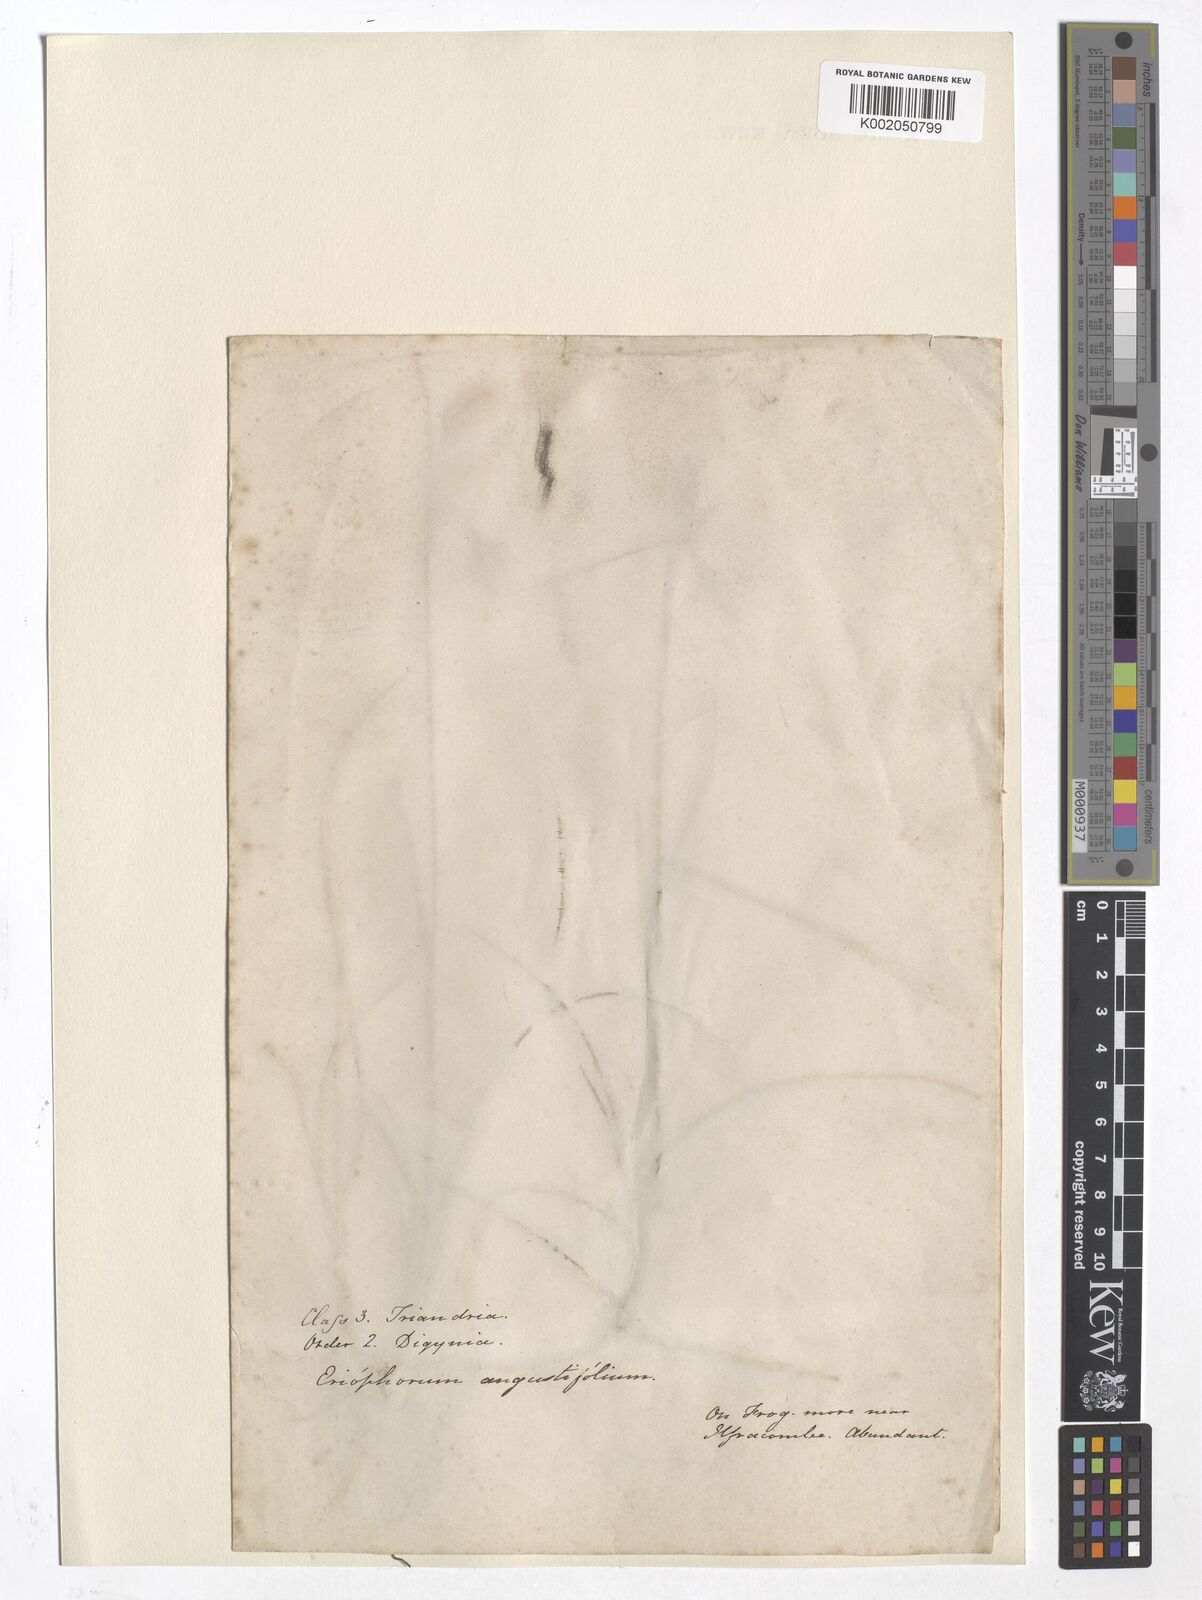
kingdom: Plantae
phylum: Tracheophyta
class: Liliopsida
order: Poales
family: Cyperaceae
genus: Eriophorum
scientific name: Eriophorum angustifolium
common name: Common cottongrass
